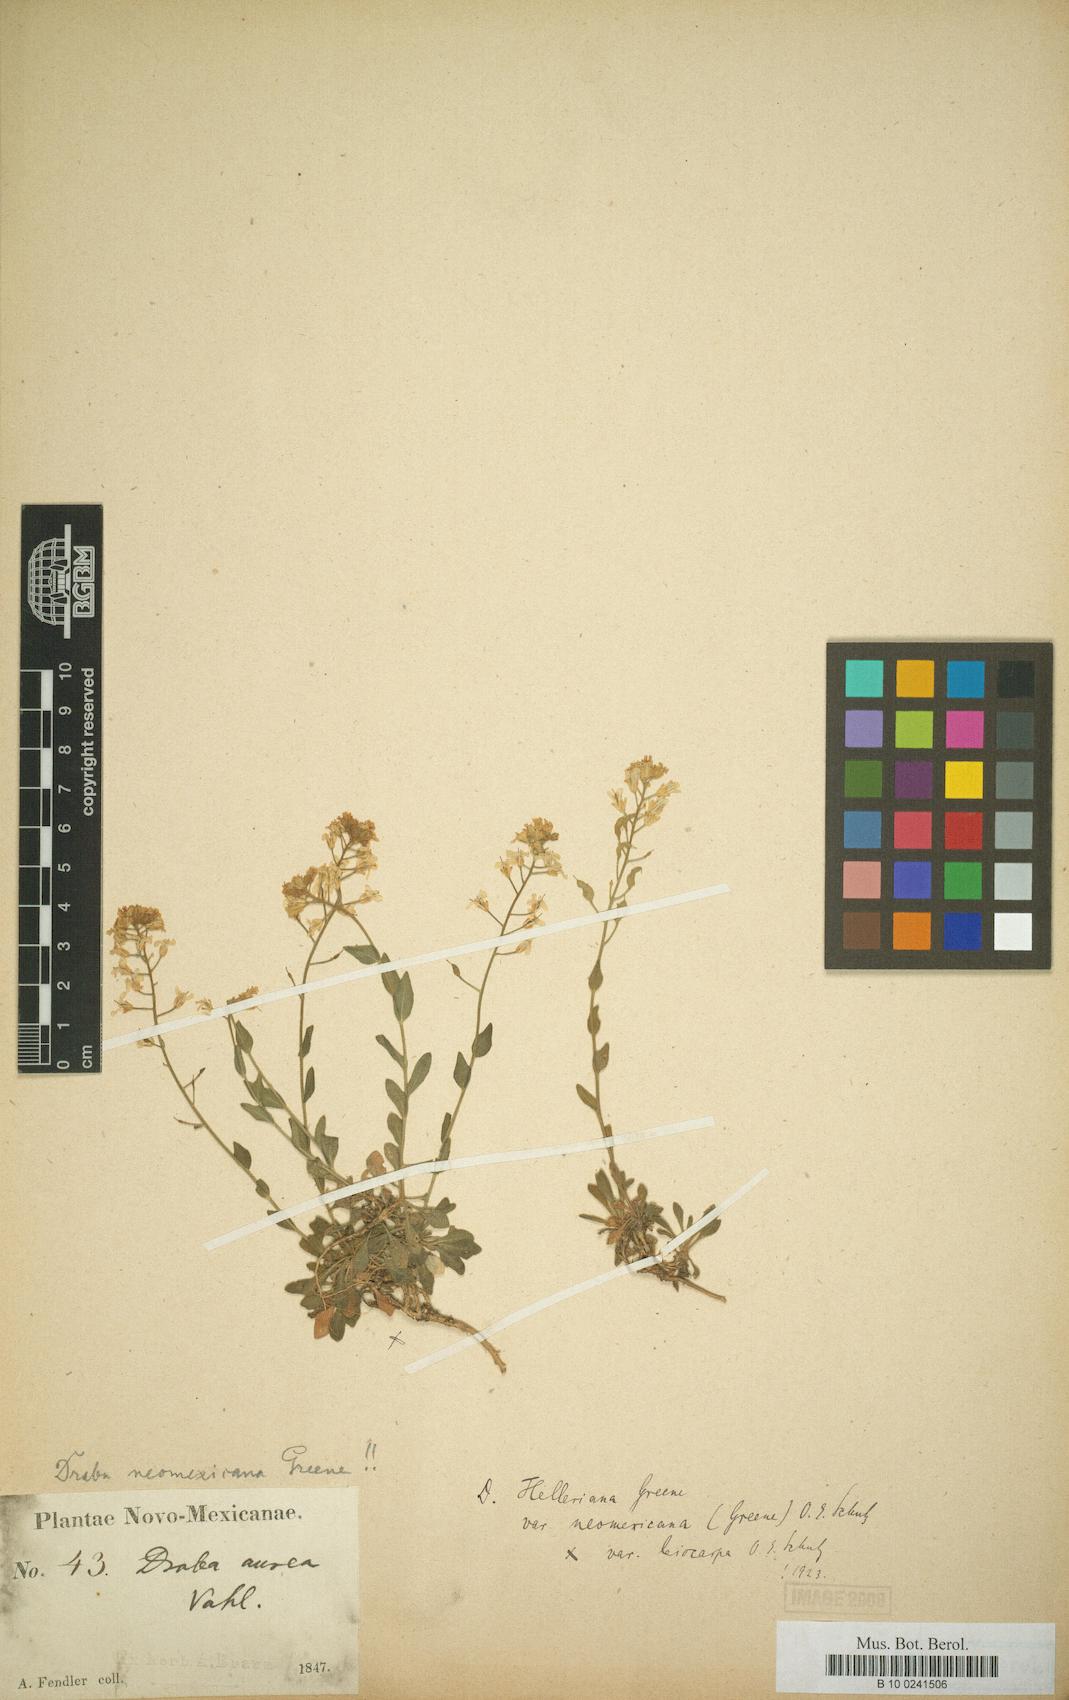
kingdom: Plantae
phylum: Tracheophyta
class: Magnoliopsida
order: Brassicales
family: Brassicaceae
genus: Draba
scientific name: Draba helleriana
